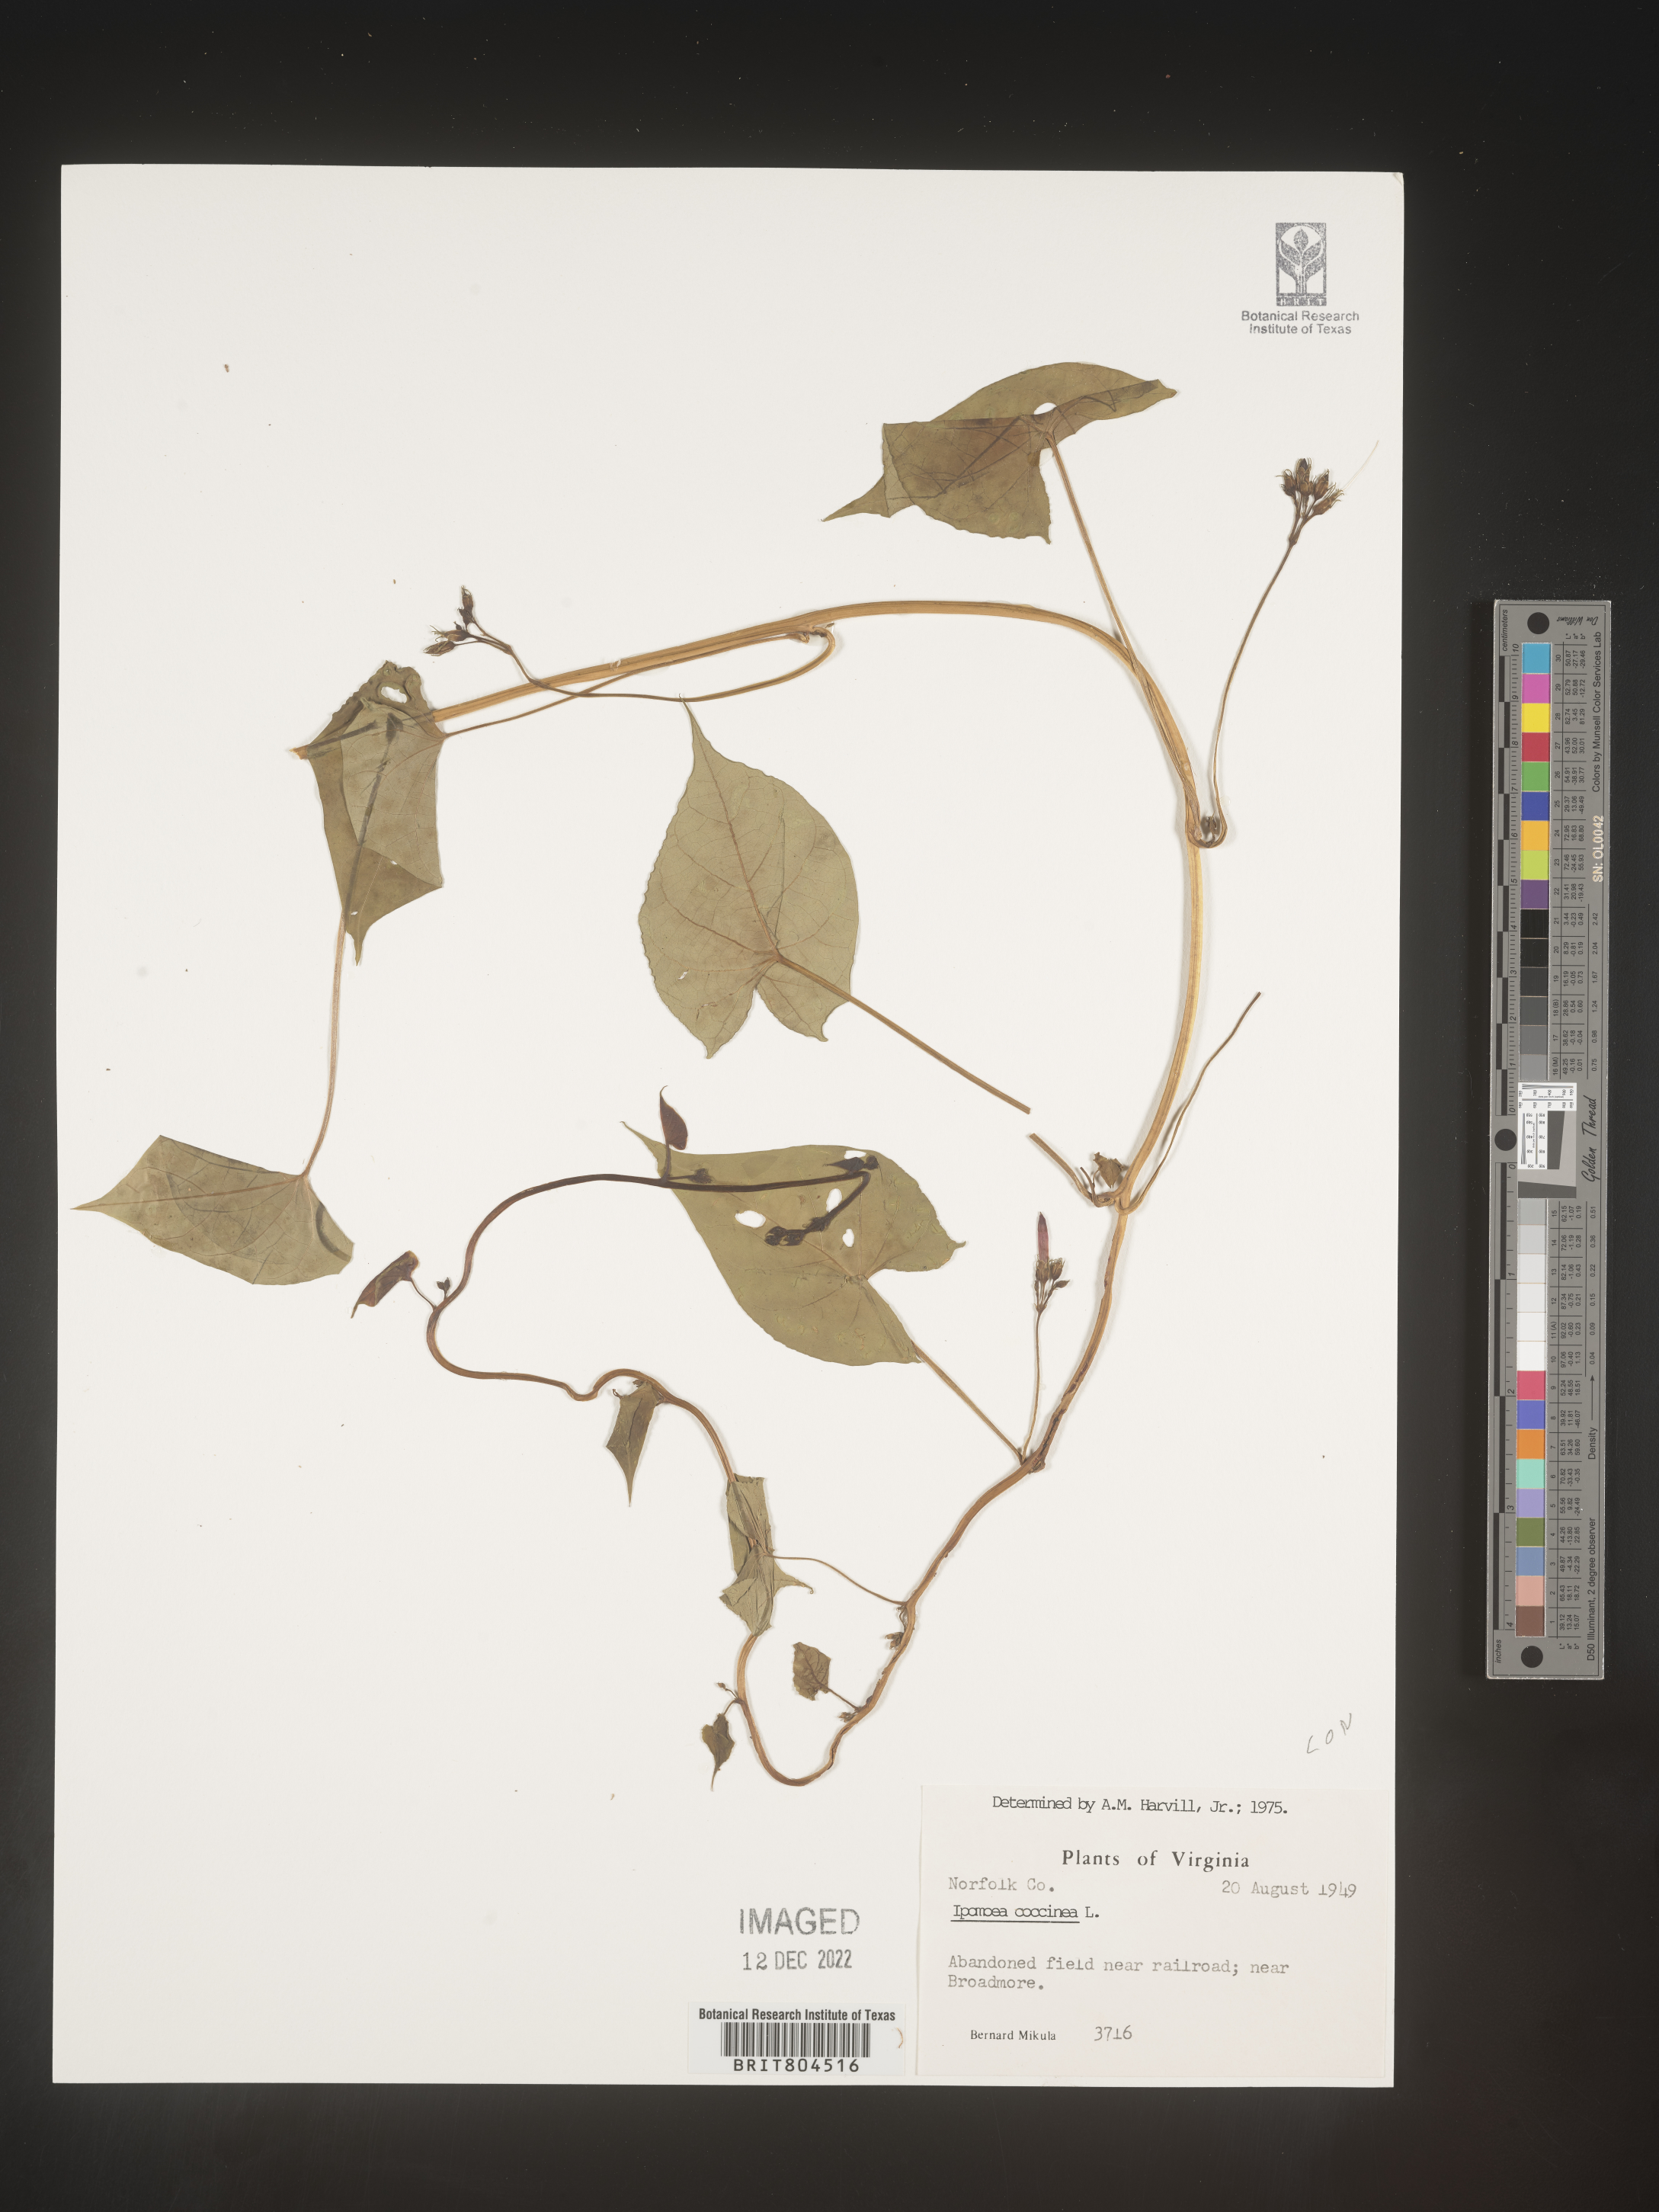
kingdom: Plantae
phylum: Tracheophyta
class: Magnoliopsida
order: Solanales
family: Convolvulaceae
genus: Ipomoea
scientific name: Ipomoea coccinea
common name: Red morning-glory
